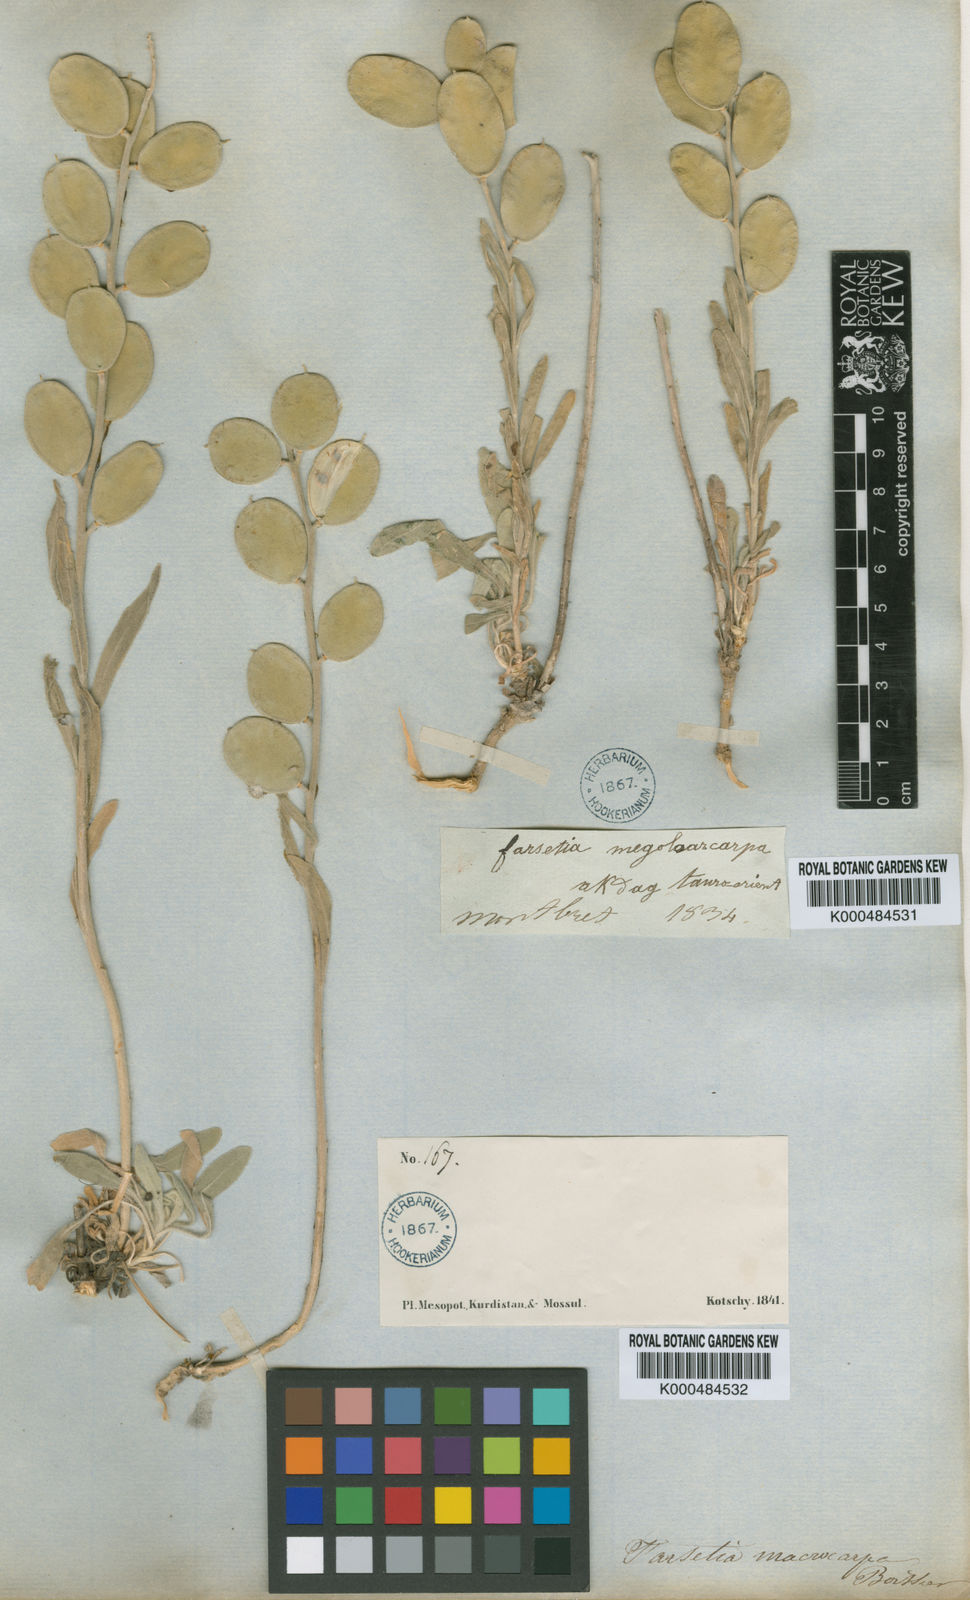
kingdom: Plantae
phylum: Tracheophyta
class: Magnoliopsida
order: Brassicales
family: Brassicaceae
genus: Fibigia
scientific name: Fibigia macrocarpa
